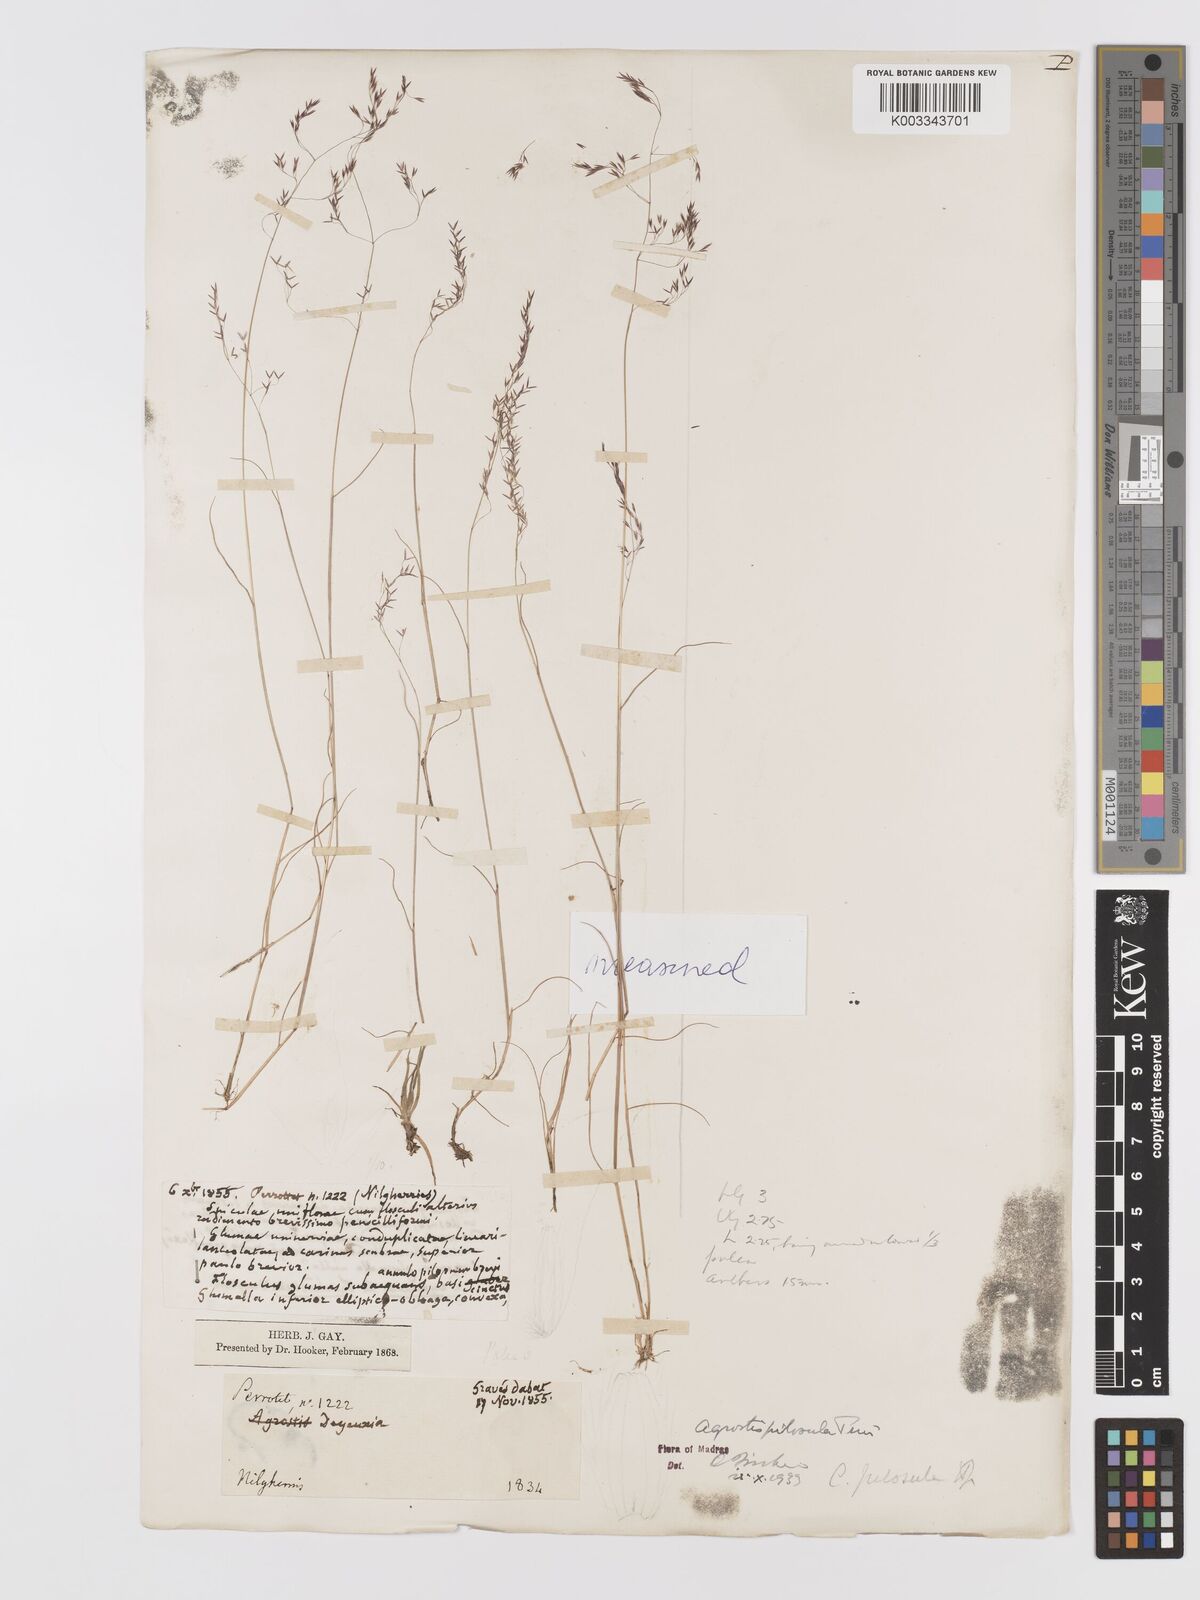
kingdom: Plantae
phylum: Tracheophyta
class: Liliopsida
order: Poales
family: Poaceae
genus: Agrostis
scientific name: Agrostis pilosula
